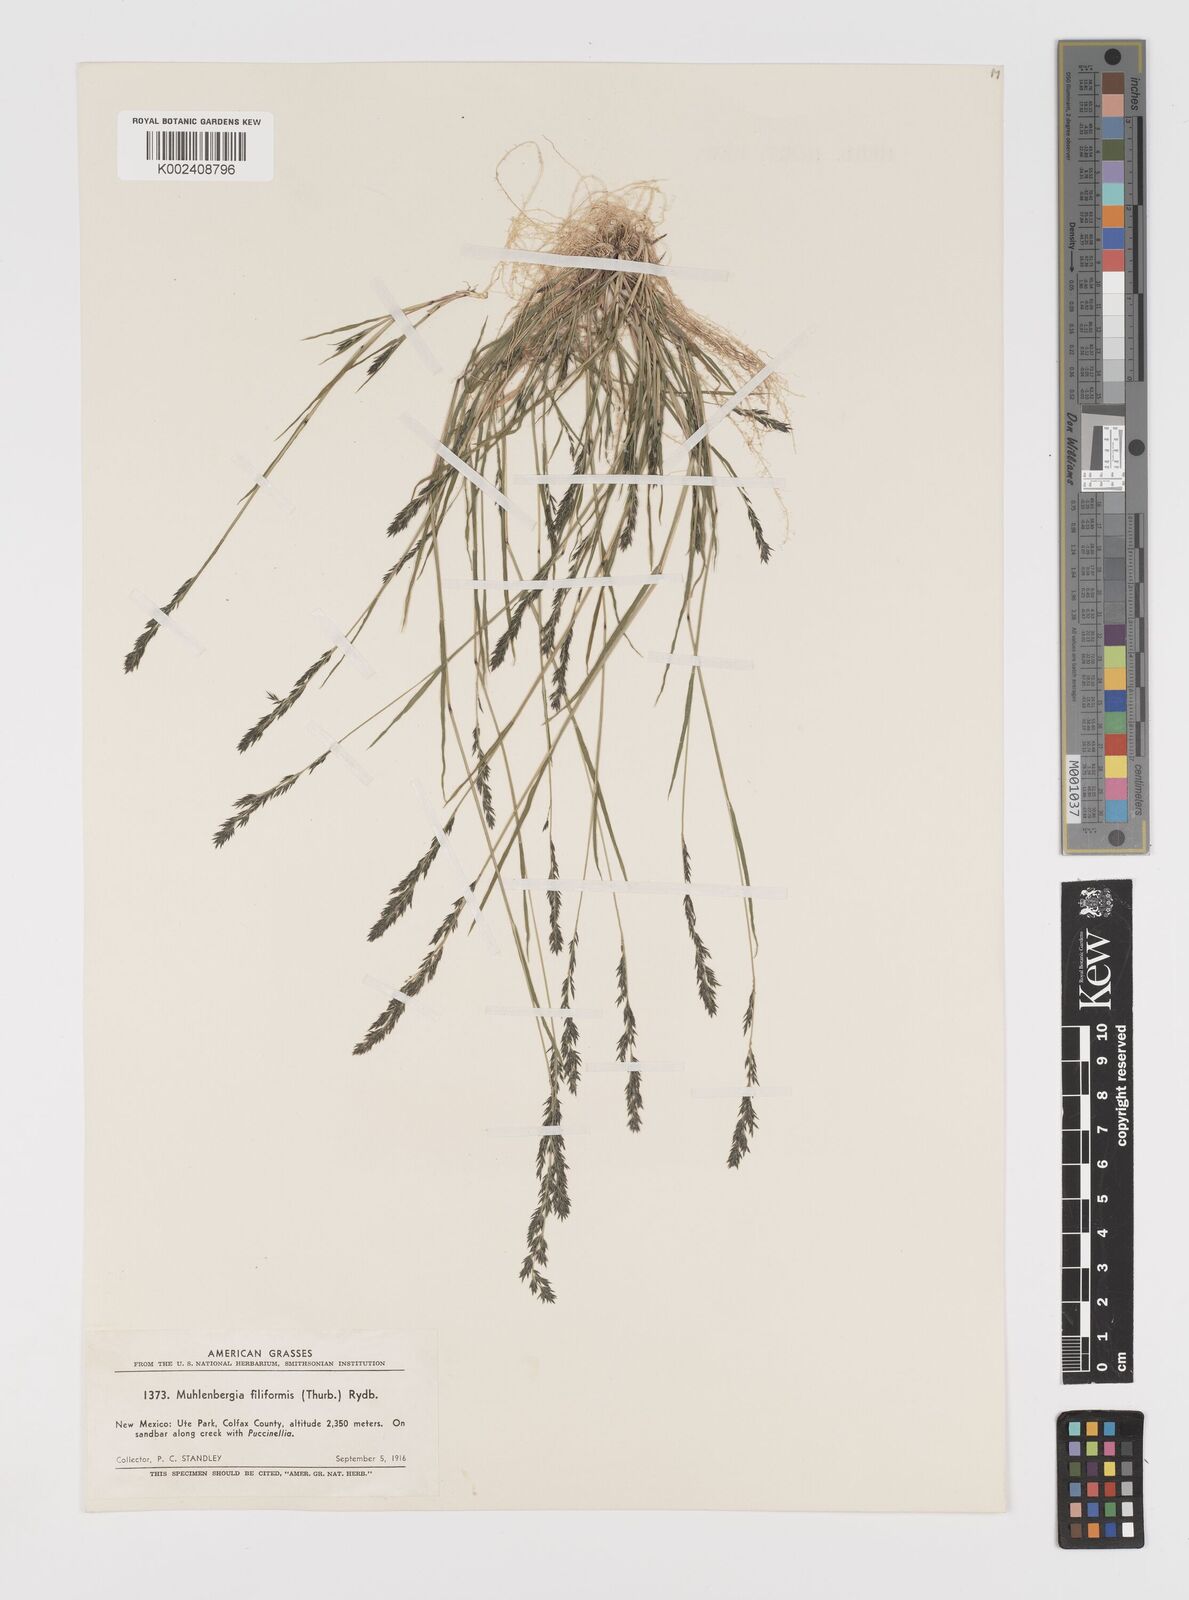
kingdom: Plantae
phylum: Tracheophyta
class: Liliopsida
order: Poales
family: Poaceae
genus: Leptochloa
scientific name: Leptochloa mucronata
